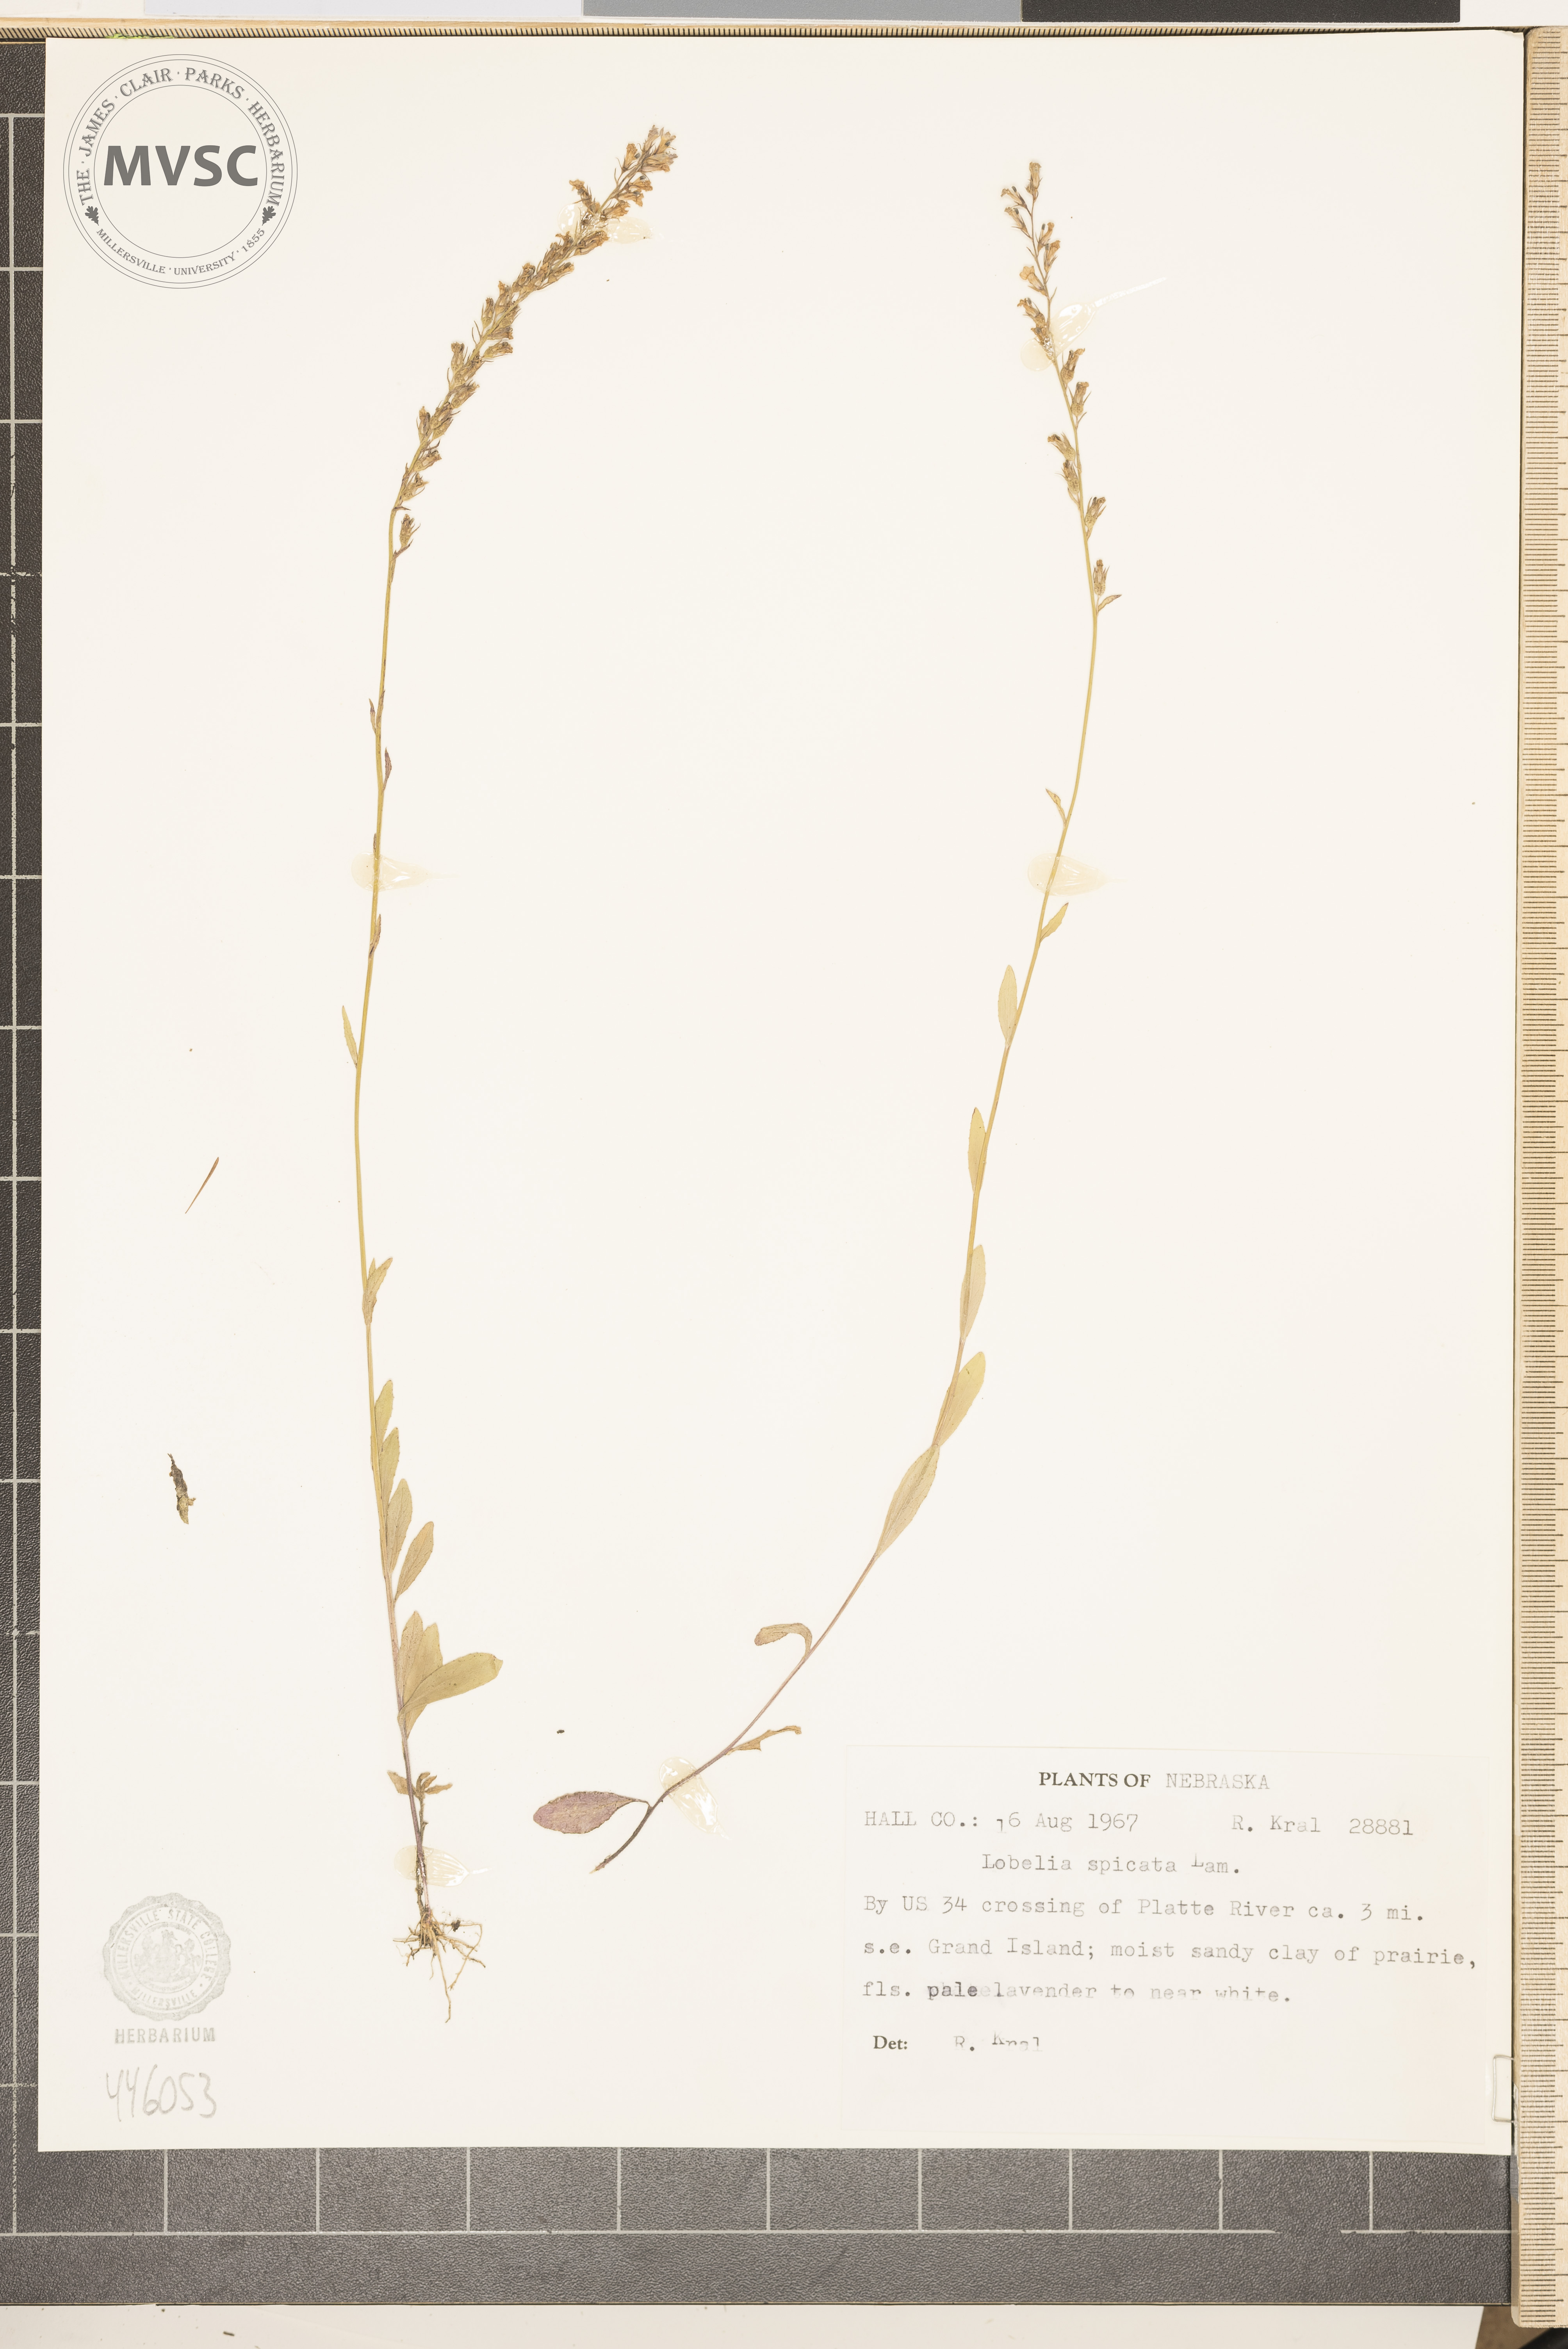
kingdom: Plantae
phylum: Tracheophyta
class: Magnoliopsida
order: Asterales
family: Campanulaceae
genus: Lobelia
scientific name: Lobelia spicata
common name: Pale-spike lobelia
